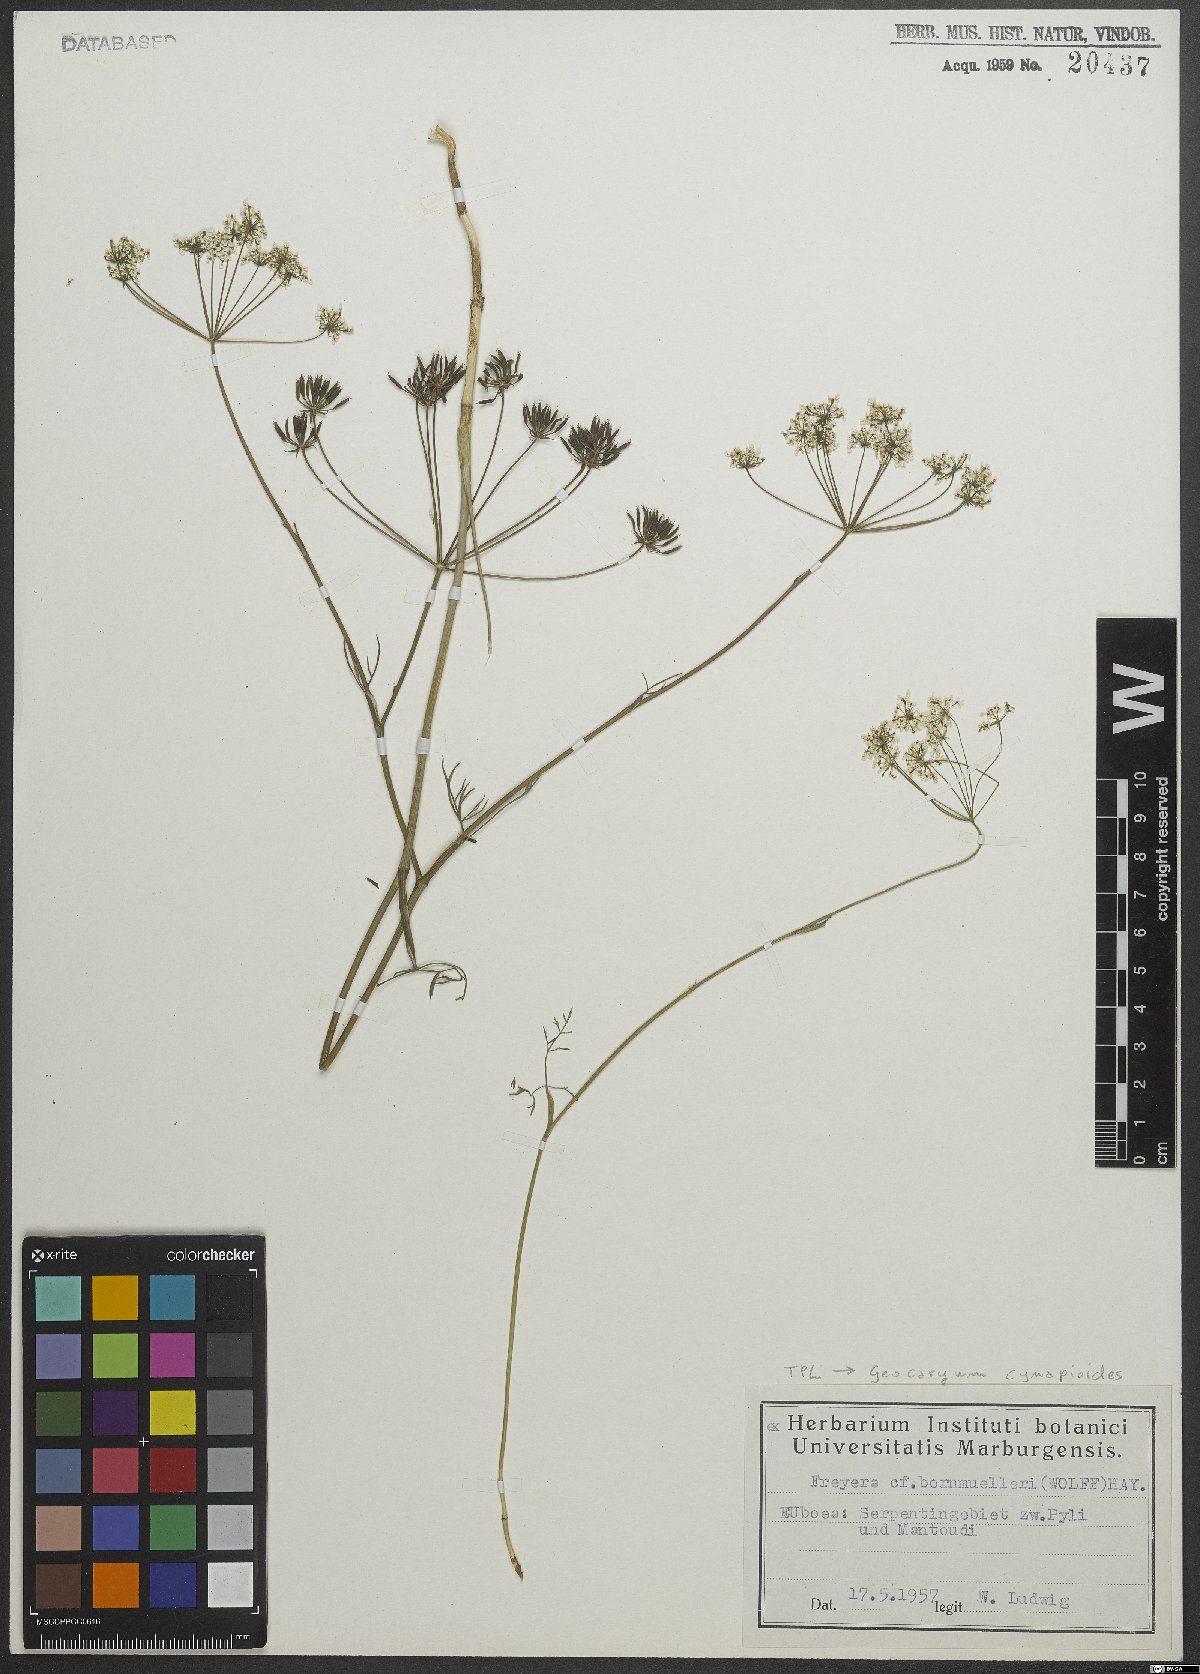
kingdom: Plantae
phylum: Tracheophyta
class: Magnoliopsida
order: Apiales
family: Apiaceae
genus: Geocaryum
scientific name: Geocaryum cynapioides
